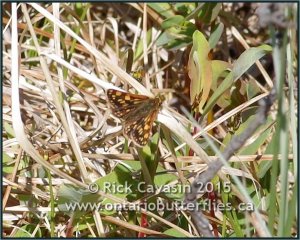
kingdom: Animalia
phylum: Arthropoda
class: Insecta
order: Lepidoptera
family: Hesperiidae
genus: Carterocephalus
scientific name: Carterocephalus palaemon
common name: Chequered Skipper
